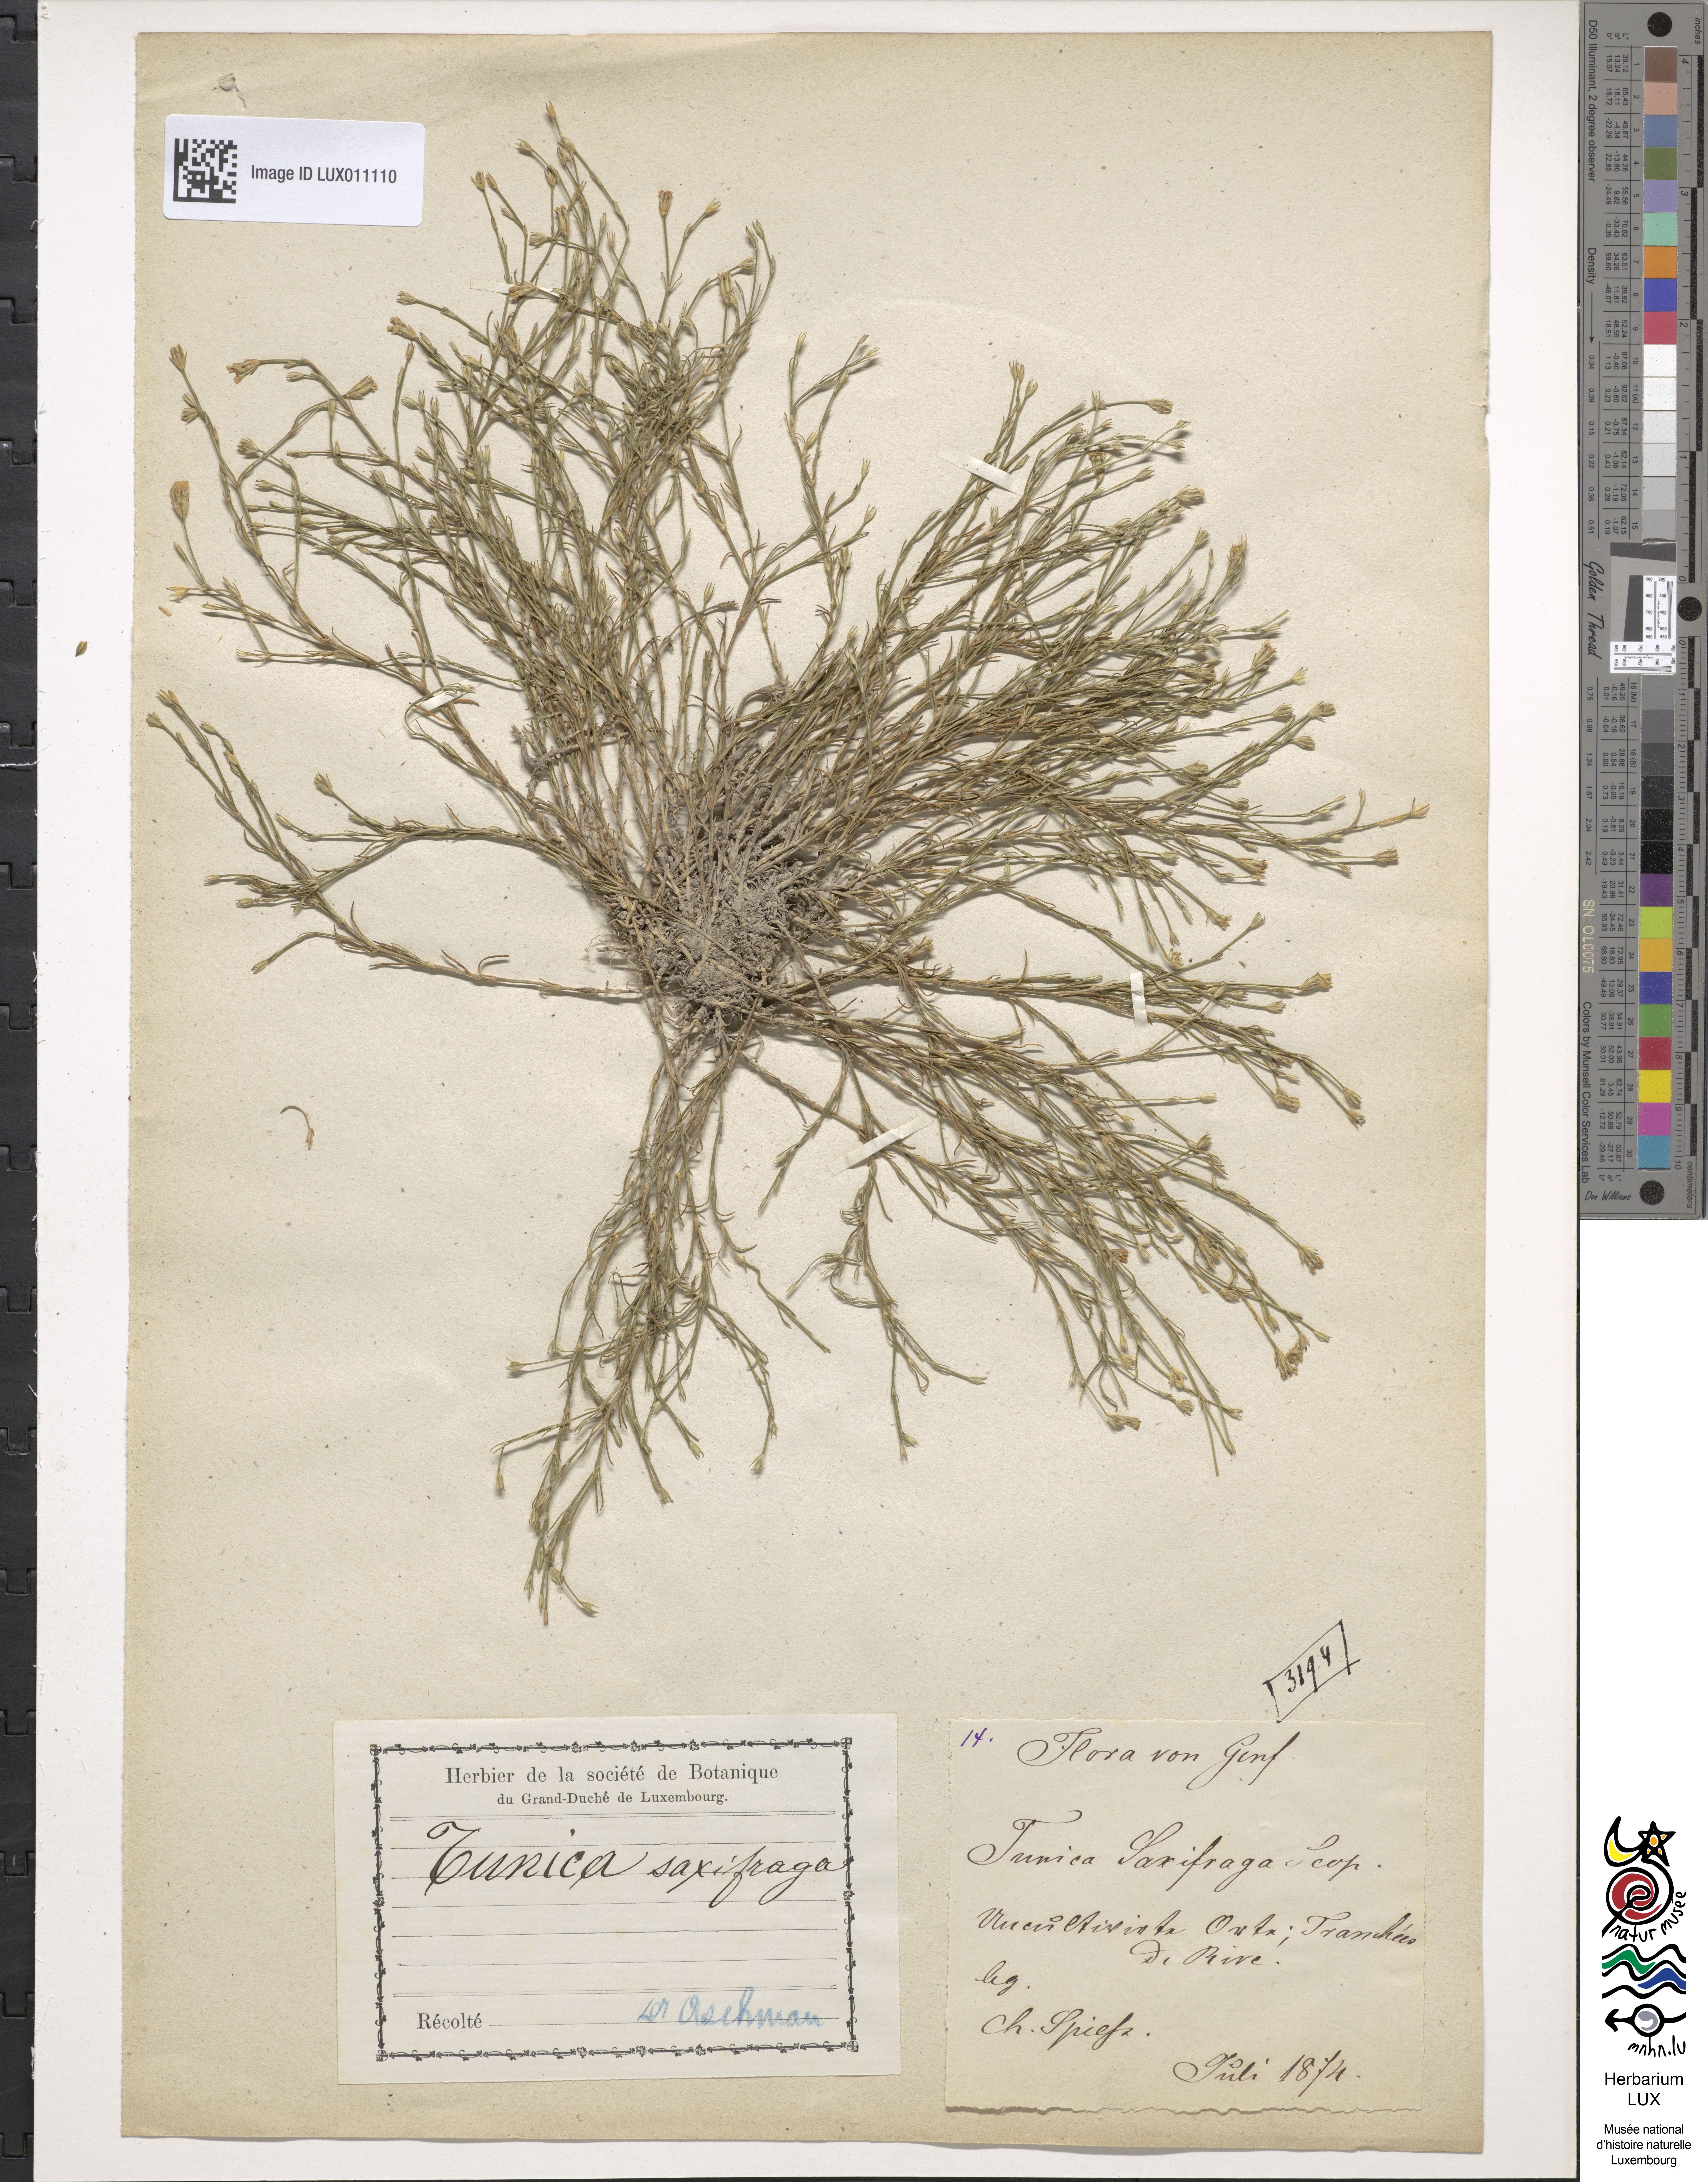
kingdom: Plantae
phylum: Tracheophyta
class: Magnoliopsida
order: Caryophyllales
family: Caryophyllaceae
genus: Petrorhagia
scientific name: Petrorhagia saxifraga
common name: Tunicflower
